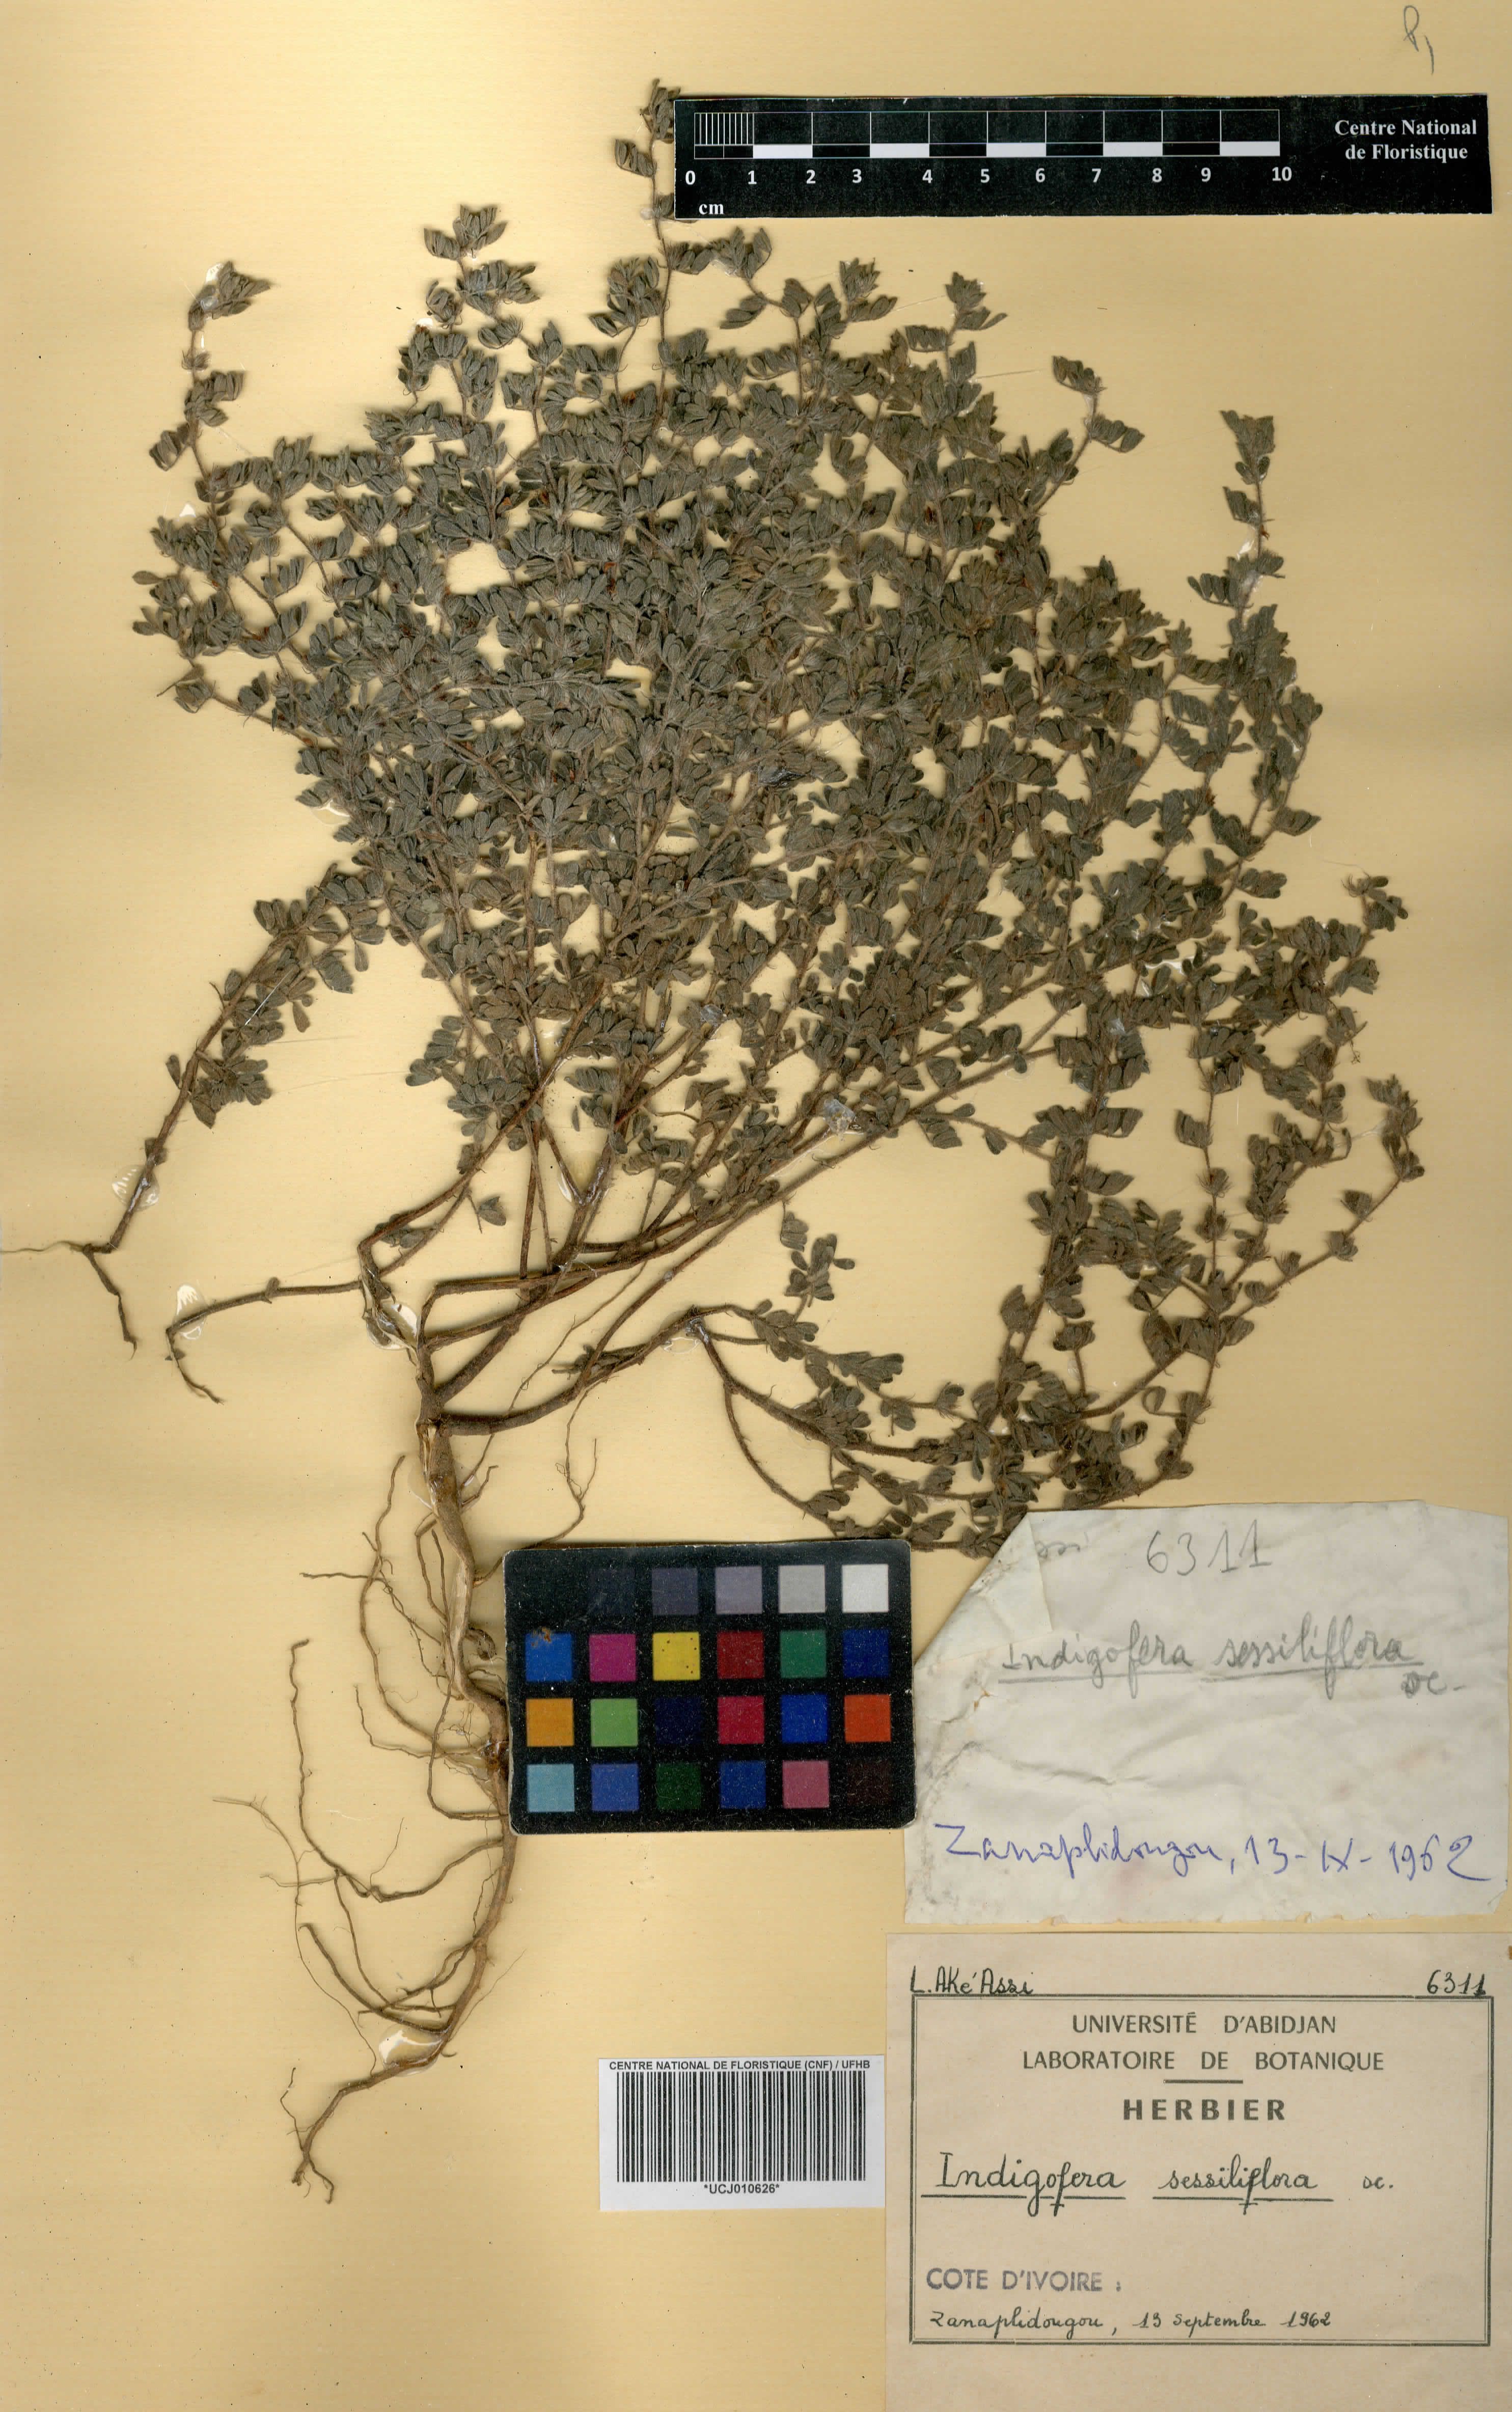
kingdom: Plantae
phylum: Tracheophyta
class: Magnoliopsida
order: Fabales
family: Fabaceae
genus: Indigofera
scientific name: Indigofera suffruticosa
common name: Anil de pasto
